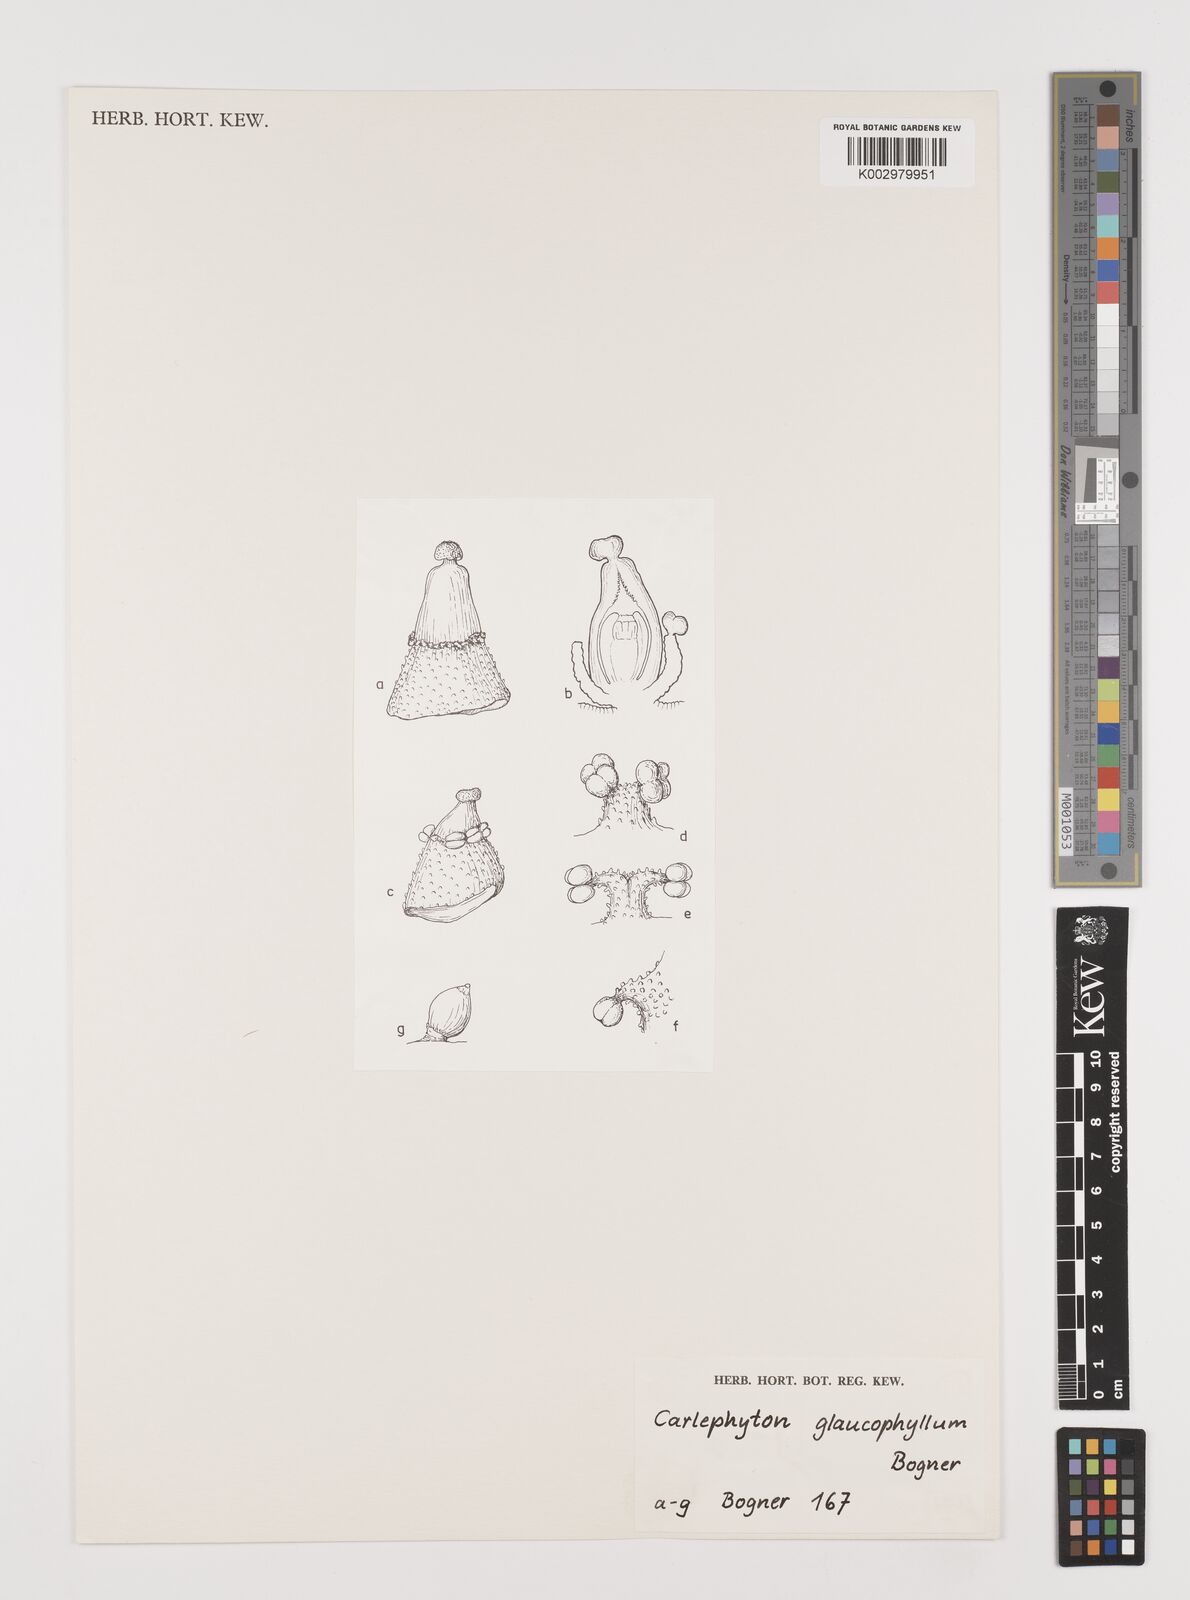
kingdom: Plantae
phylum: Tracheophyta
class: Liliopsida
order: Alismatales
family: Araceae
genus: Carlephyton
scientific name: Carlephyton glaucophyllum
